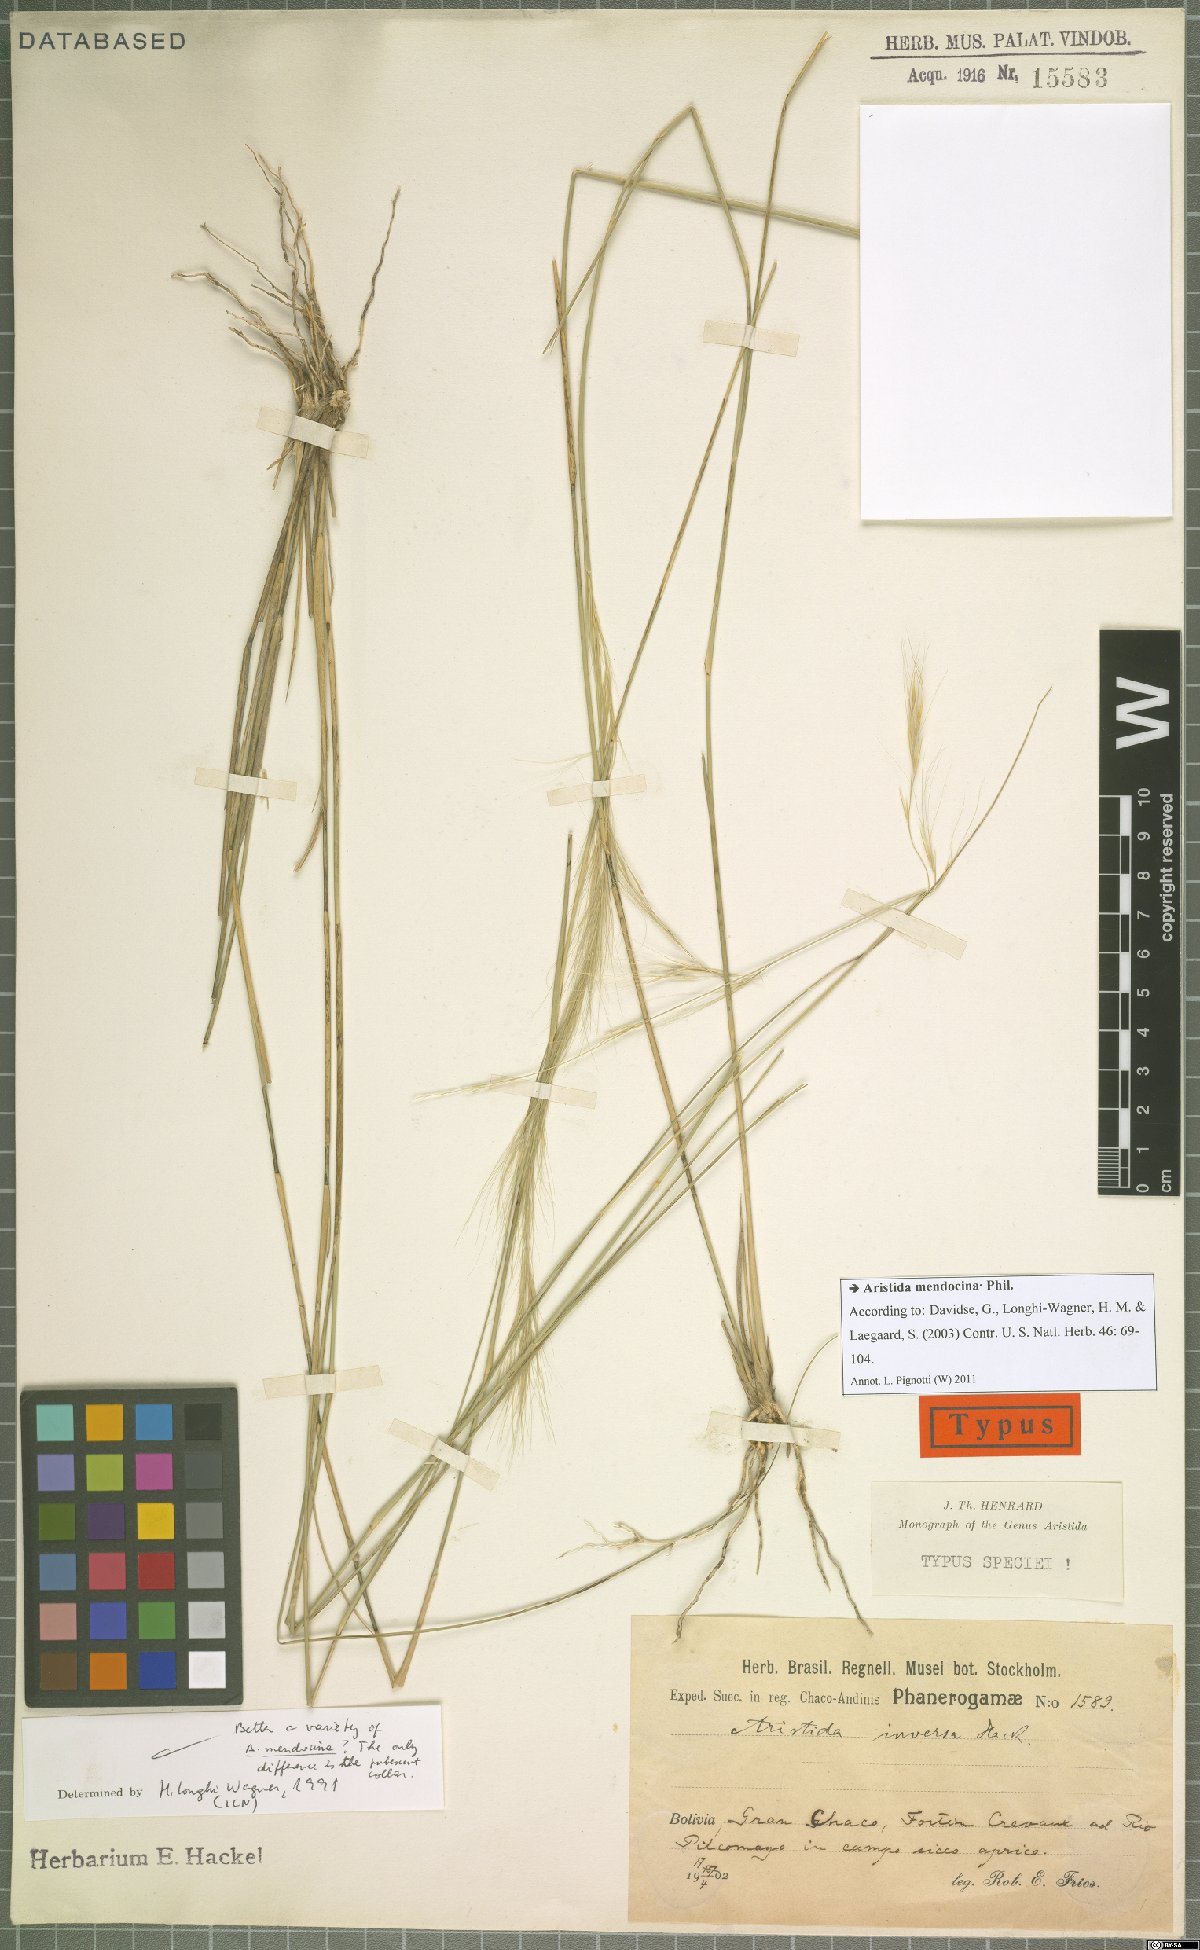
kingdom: Plantae
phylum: Tracheophyta
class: Liliopsida
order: Poales
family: Poaceae
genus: Aristida
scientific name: Aristida mendocina
